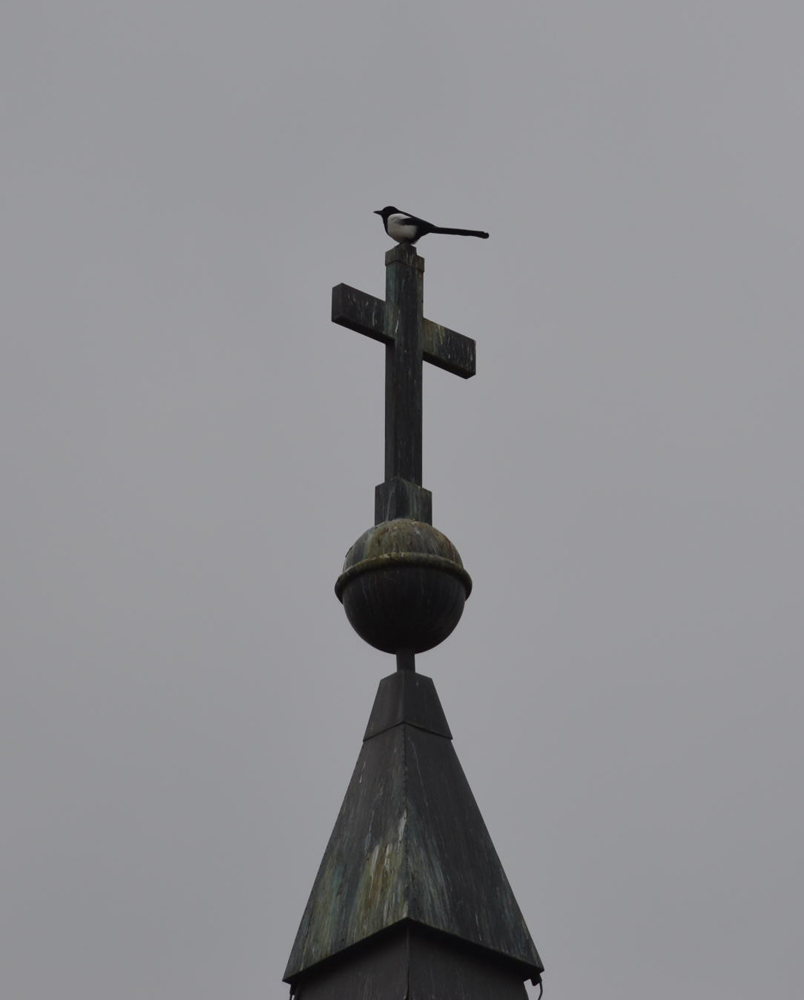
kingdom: Animalia
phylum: Chordata
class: Aves
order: Passeriformes
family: Corvidae
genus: Pica
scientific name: Pica pica
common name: Eurasian magpie
